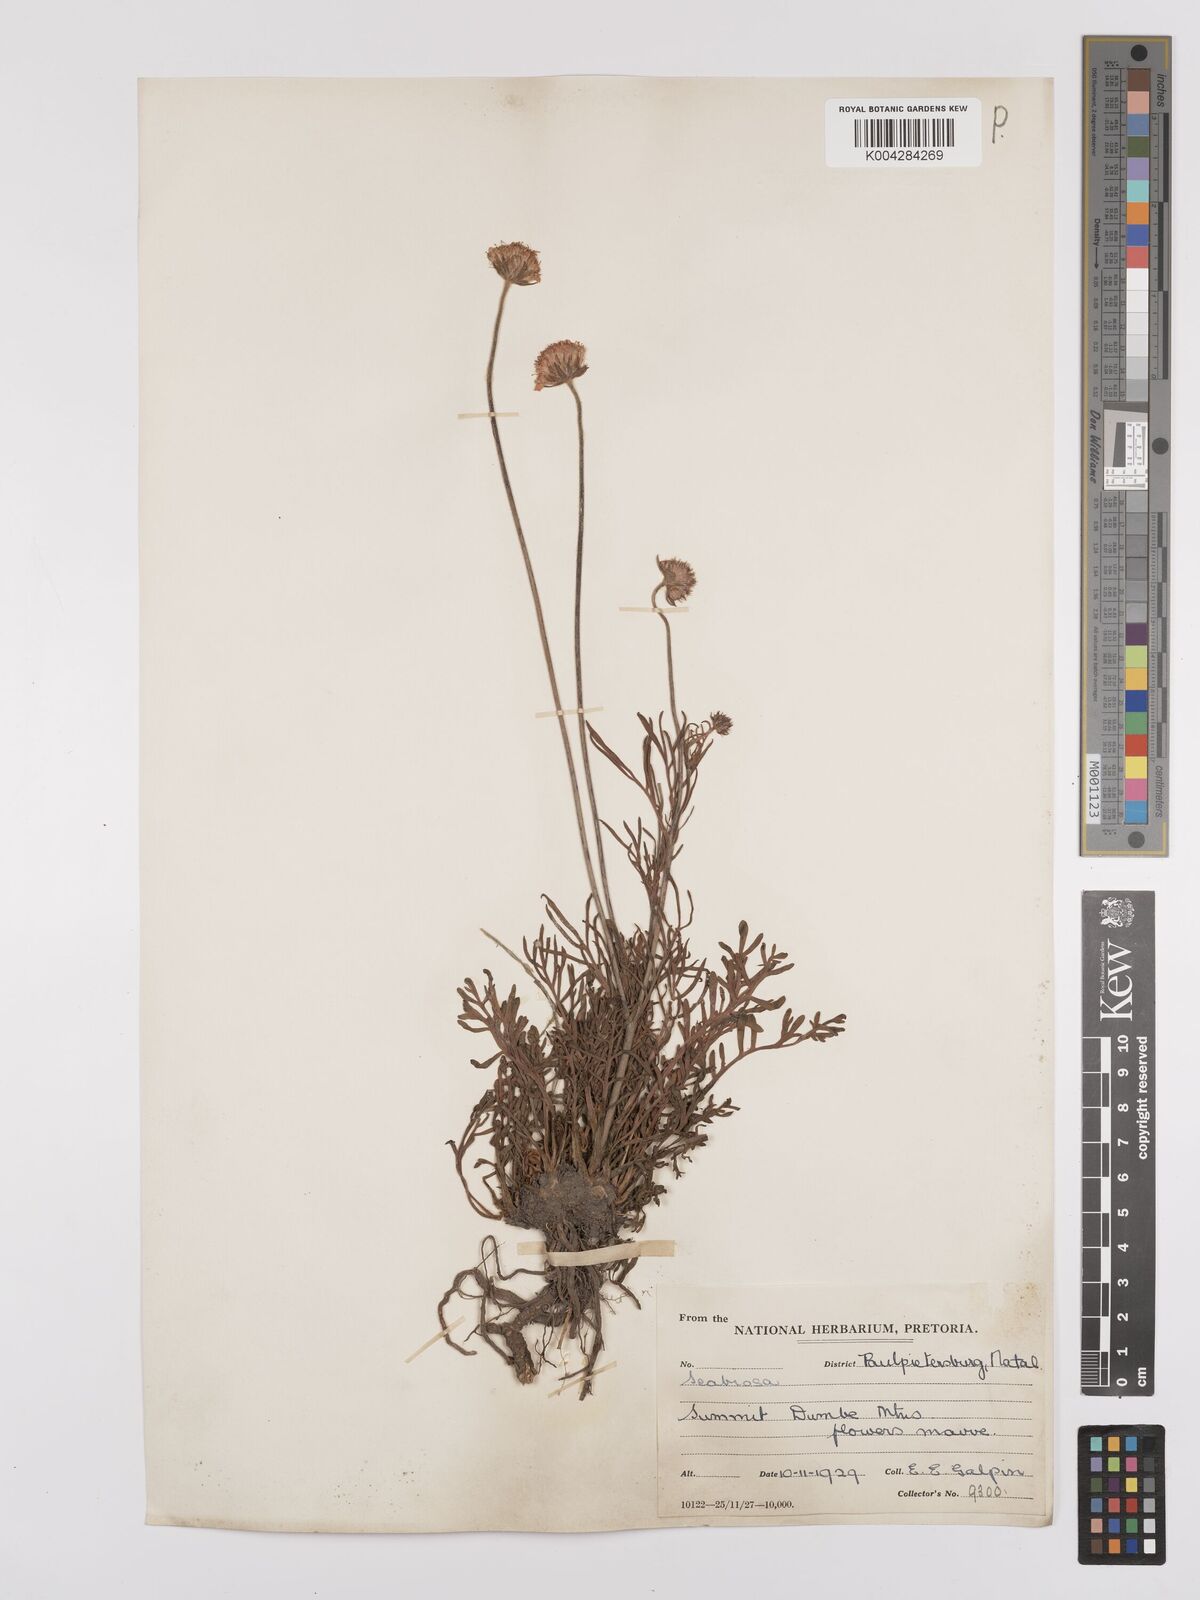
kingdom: Plantae
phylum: Tracheophyta
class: Magnoliopsida
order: Dipsacales
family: Caprifoliaceae
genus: Scabiosa
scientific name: Scabiosa columbaria
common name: Small scabious
